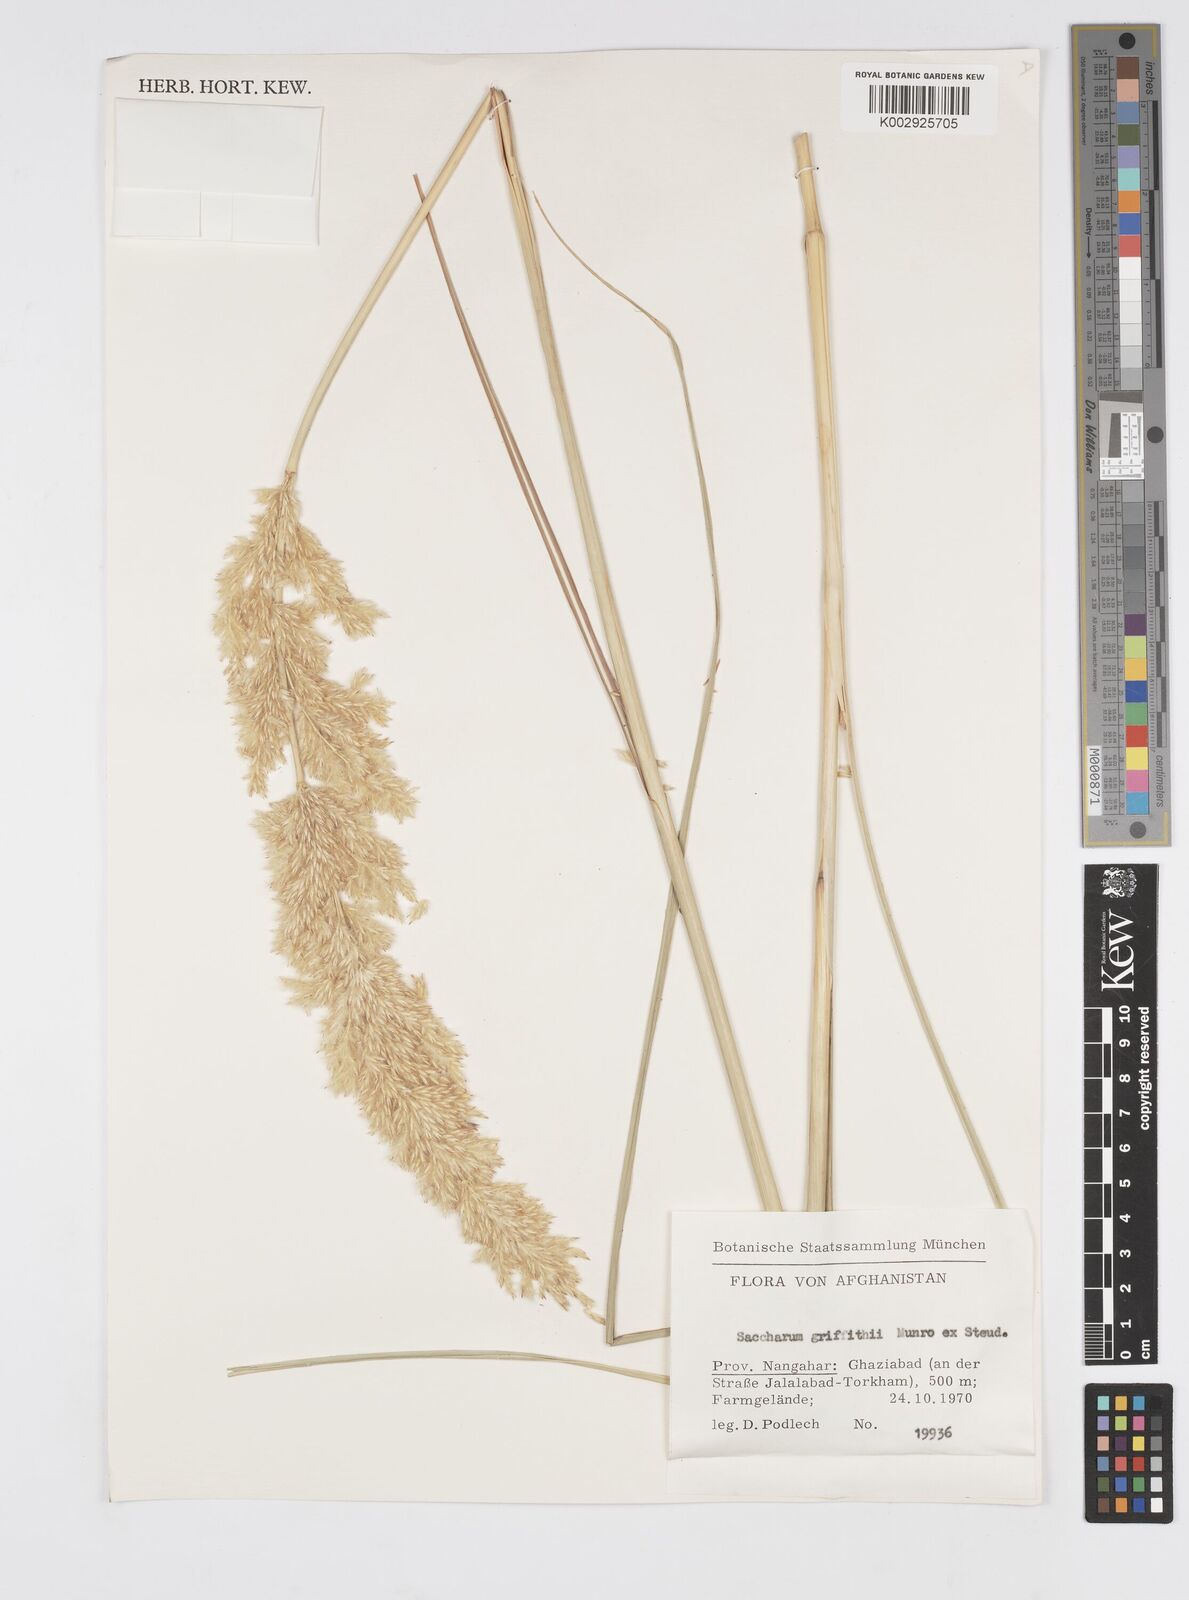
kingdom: Plantae
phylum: Tracheophyta
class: Liliopsida
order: Poales
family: Poaceae
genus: Saccharum
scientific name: Saccharum griffithii
